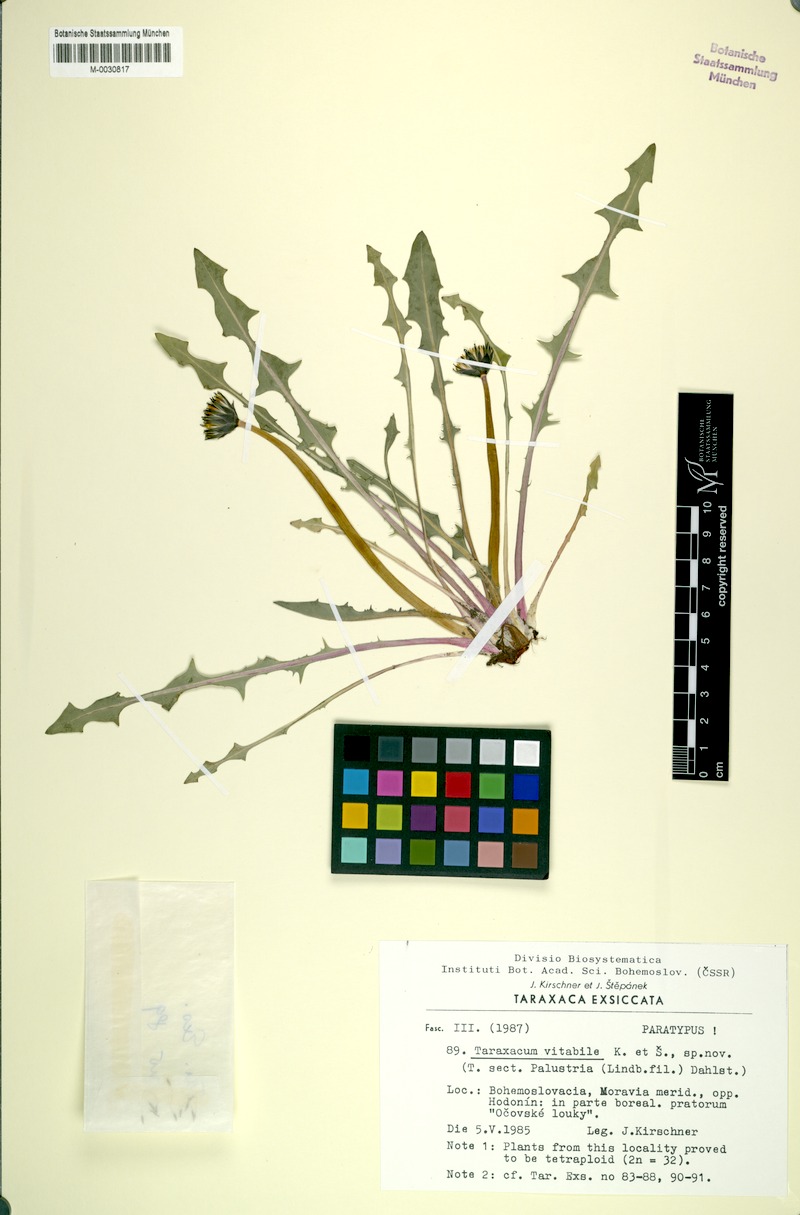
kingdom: Plantae
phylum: Tracheophyta
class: Magnoliopsida
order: Asterales
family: Asteraceae
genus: Taraxacum
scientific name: Taraxacum vindobonense
